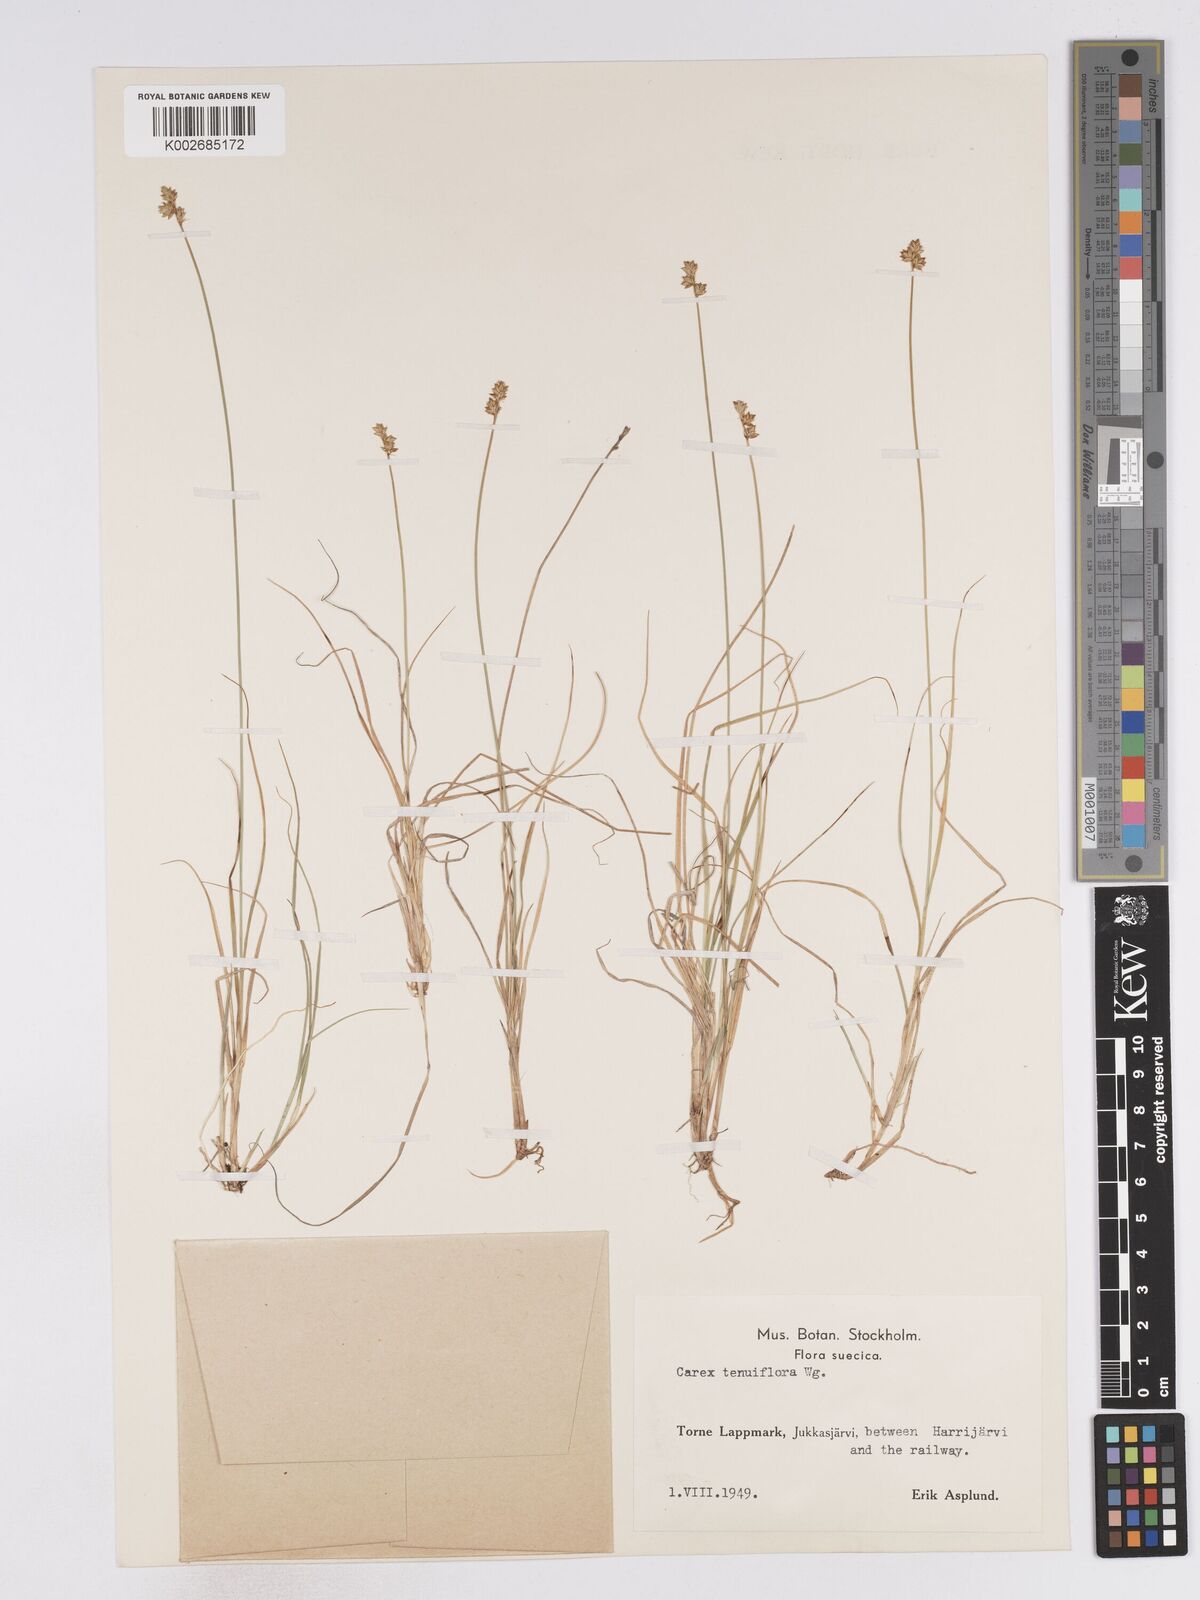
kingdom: Plantae
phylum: Tracheophyta
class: Liliopsida
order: Poales
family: Cyperaceae
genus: Carex
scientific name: Carex tenuiflora
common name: Sparse-flowered sedge
